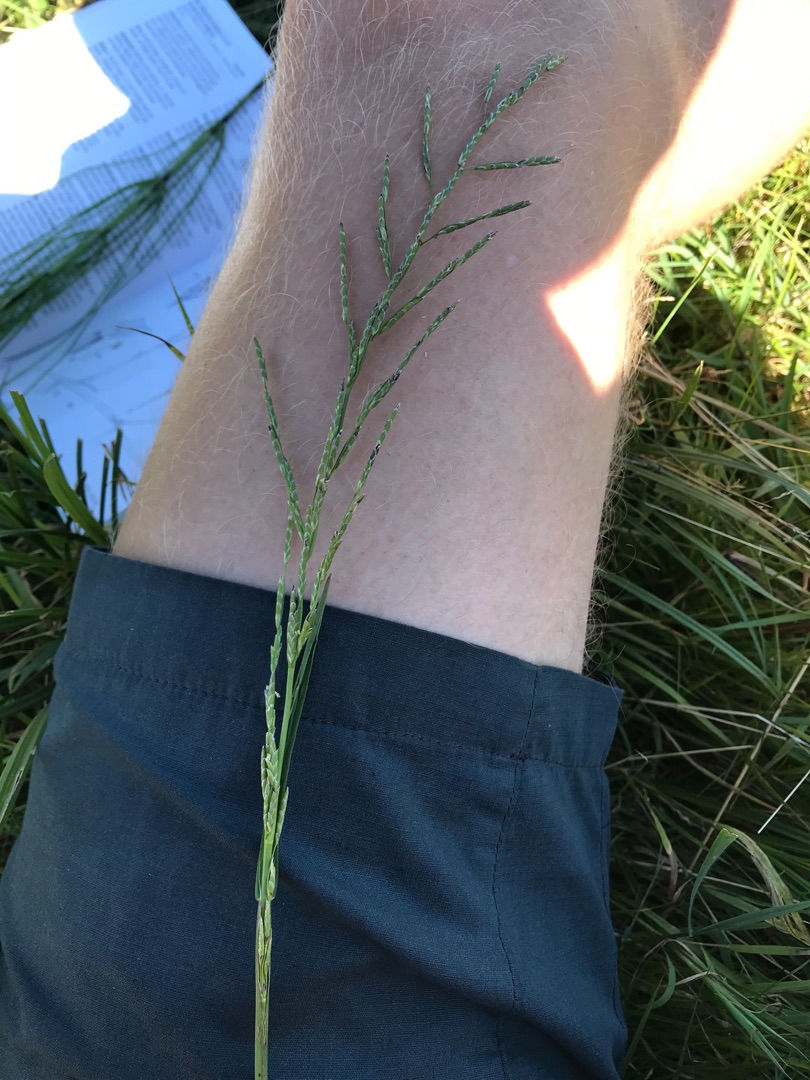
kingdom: Plantae
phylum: Tracheophyta
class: Liliopsida
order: Poales
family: Poaceae
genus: Glyceria
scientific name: Glyceria notata
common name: Butblomstret sødgræs
